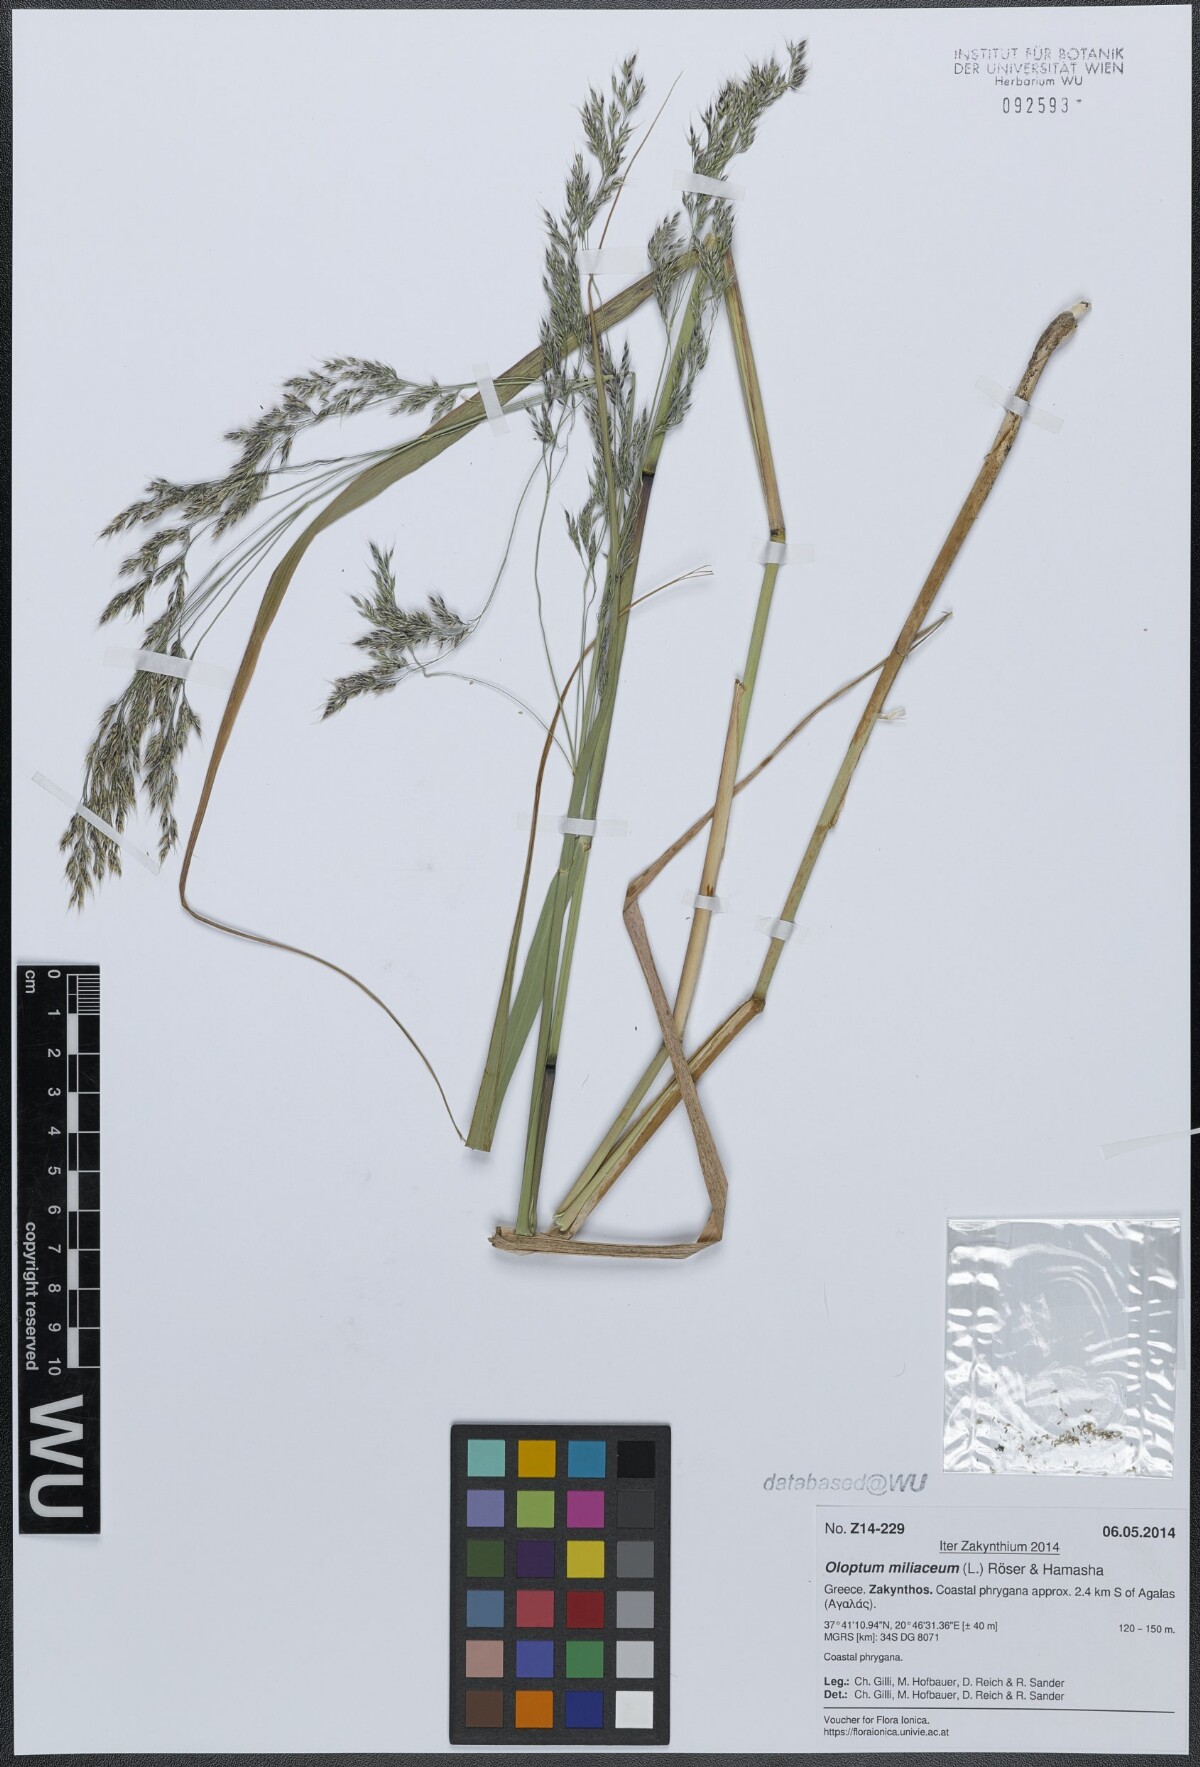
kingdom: Plantae
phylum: Tracheophyta
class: Liliopsida
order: Poales
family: Poaceae
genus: Oloptum
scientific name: Oloptum miliaceum
